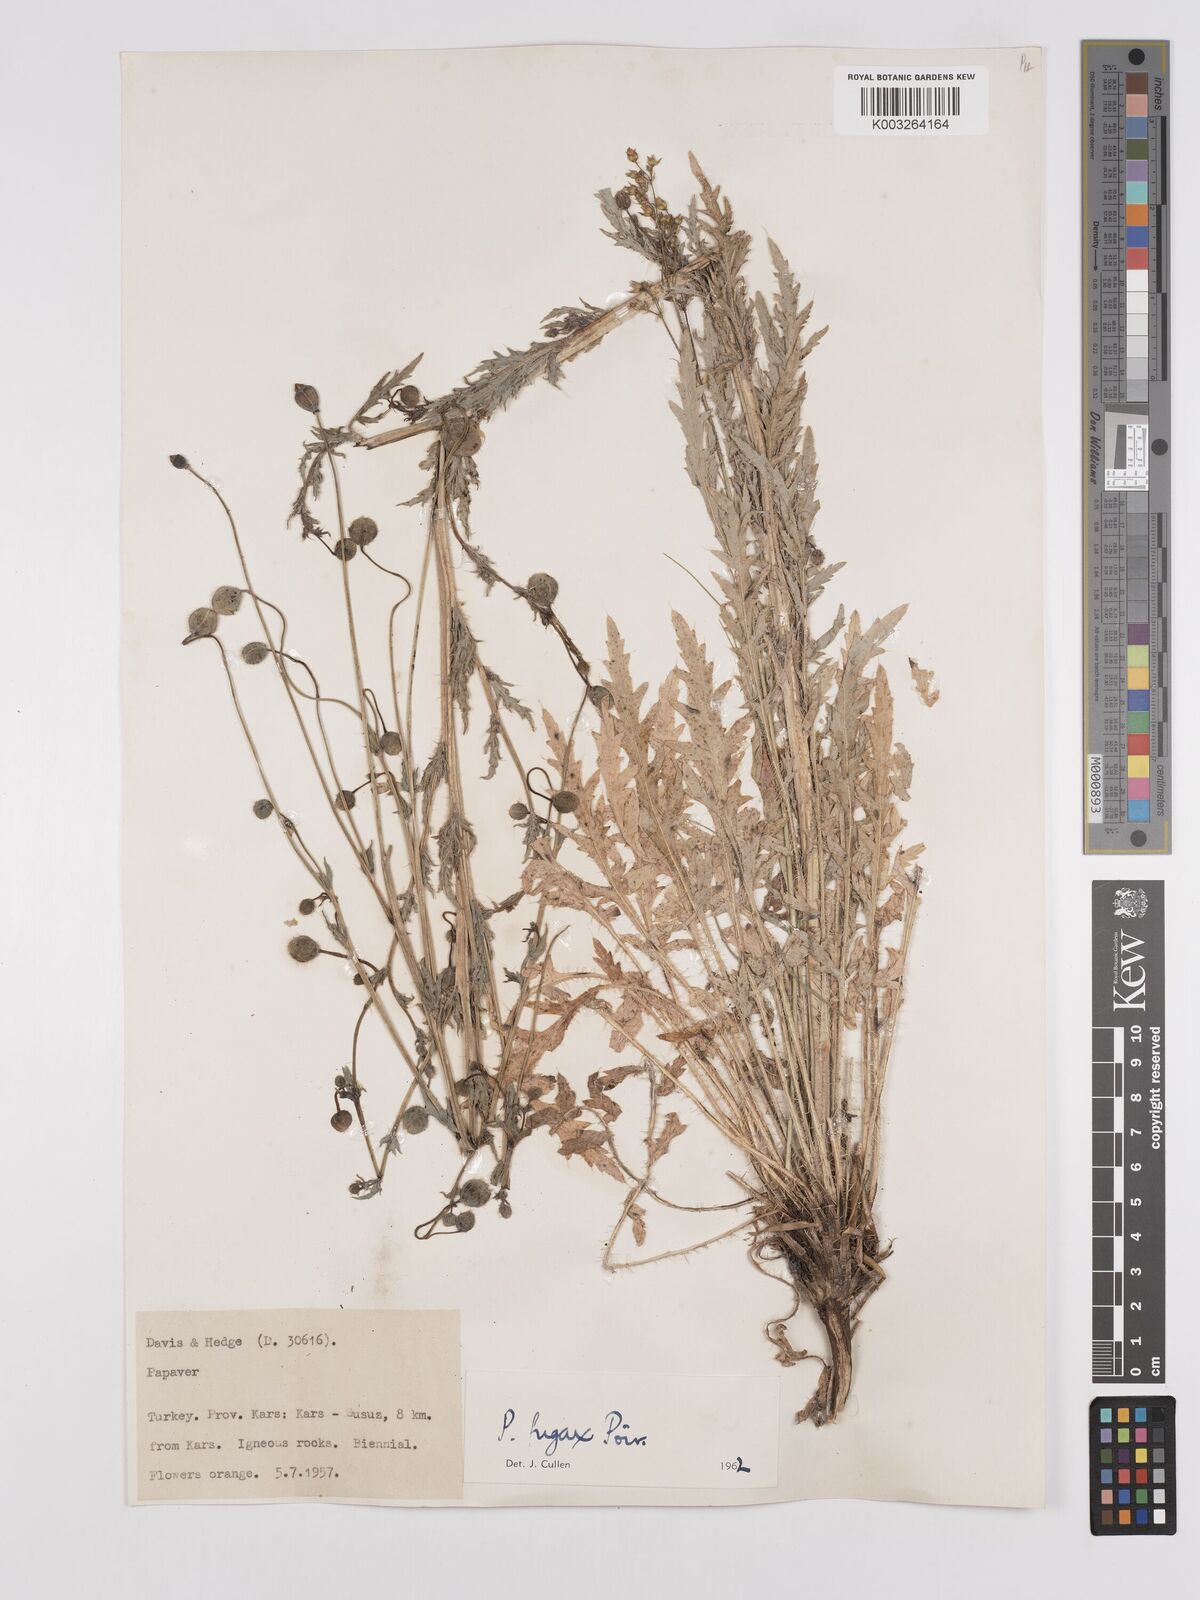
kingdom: Plantae
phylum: Tracheophyta
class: Magnoliopsida
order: Ranunculales
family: Papaveraceae
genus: Papaver
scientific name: Papaver armeniacum
